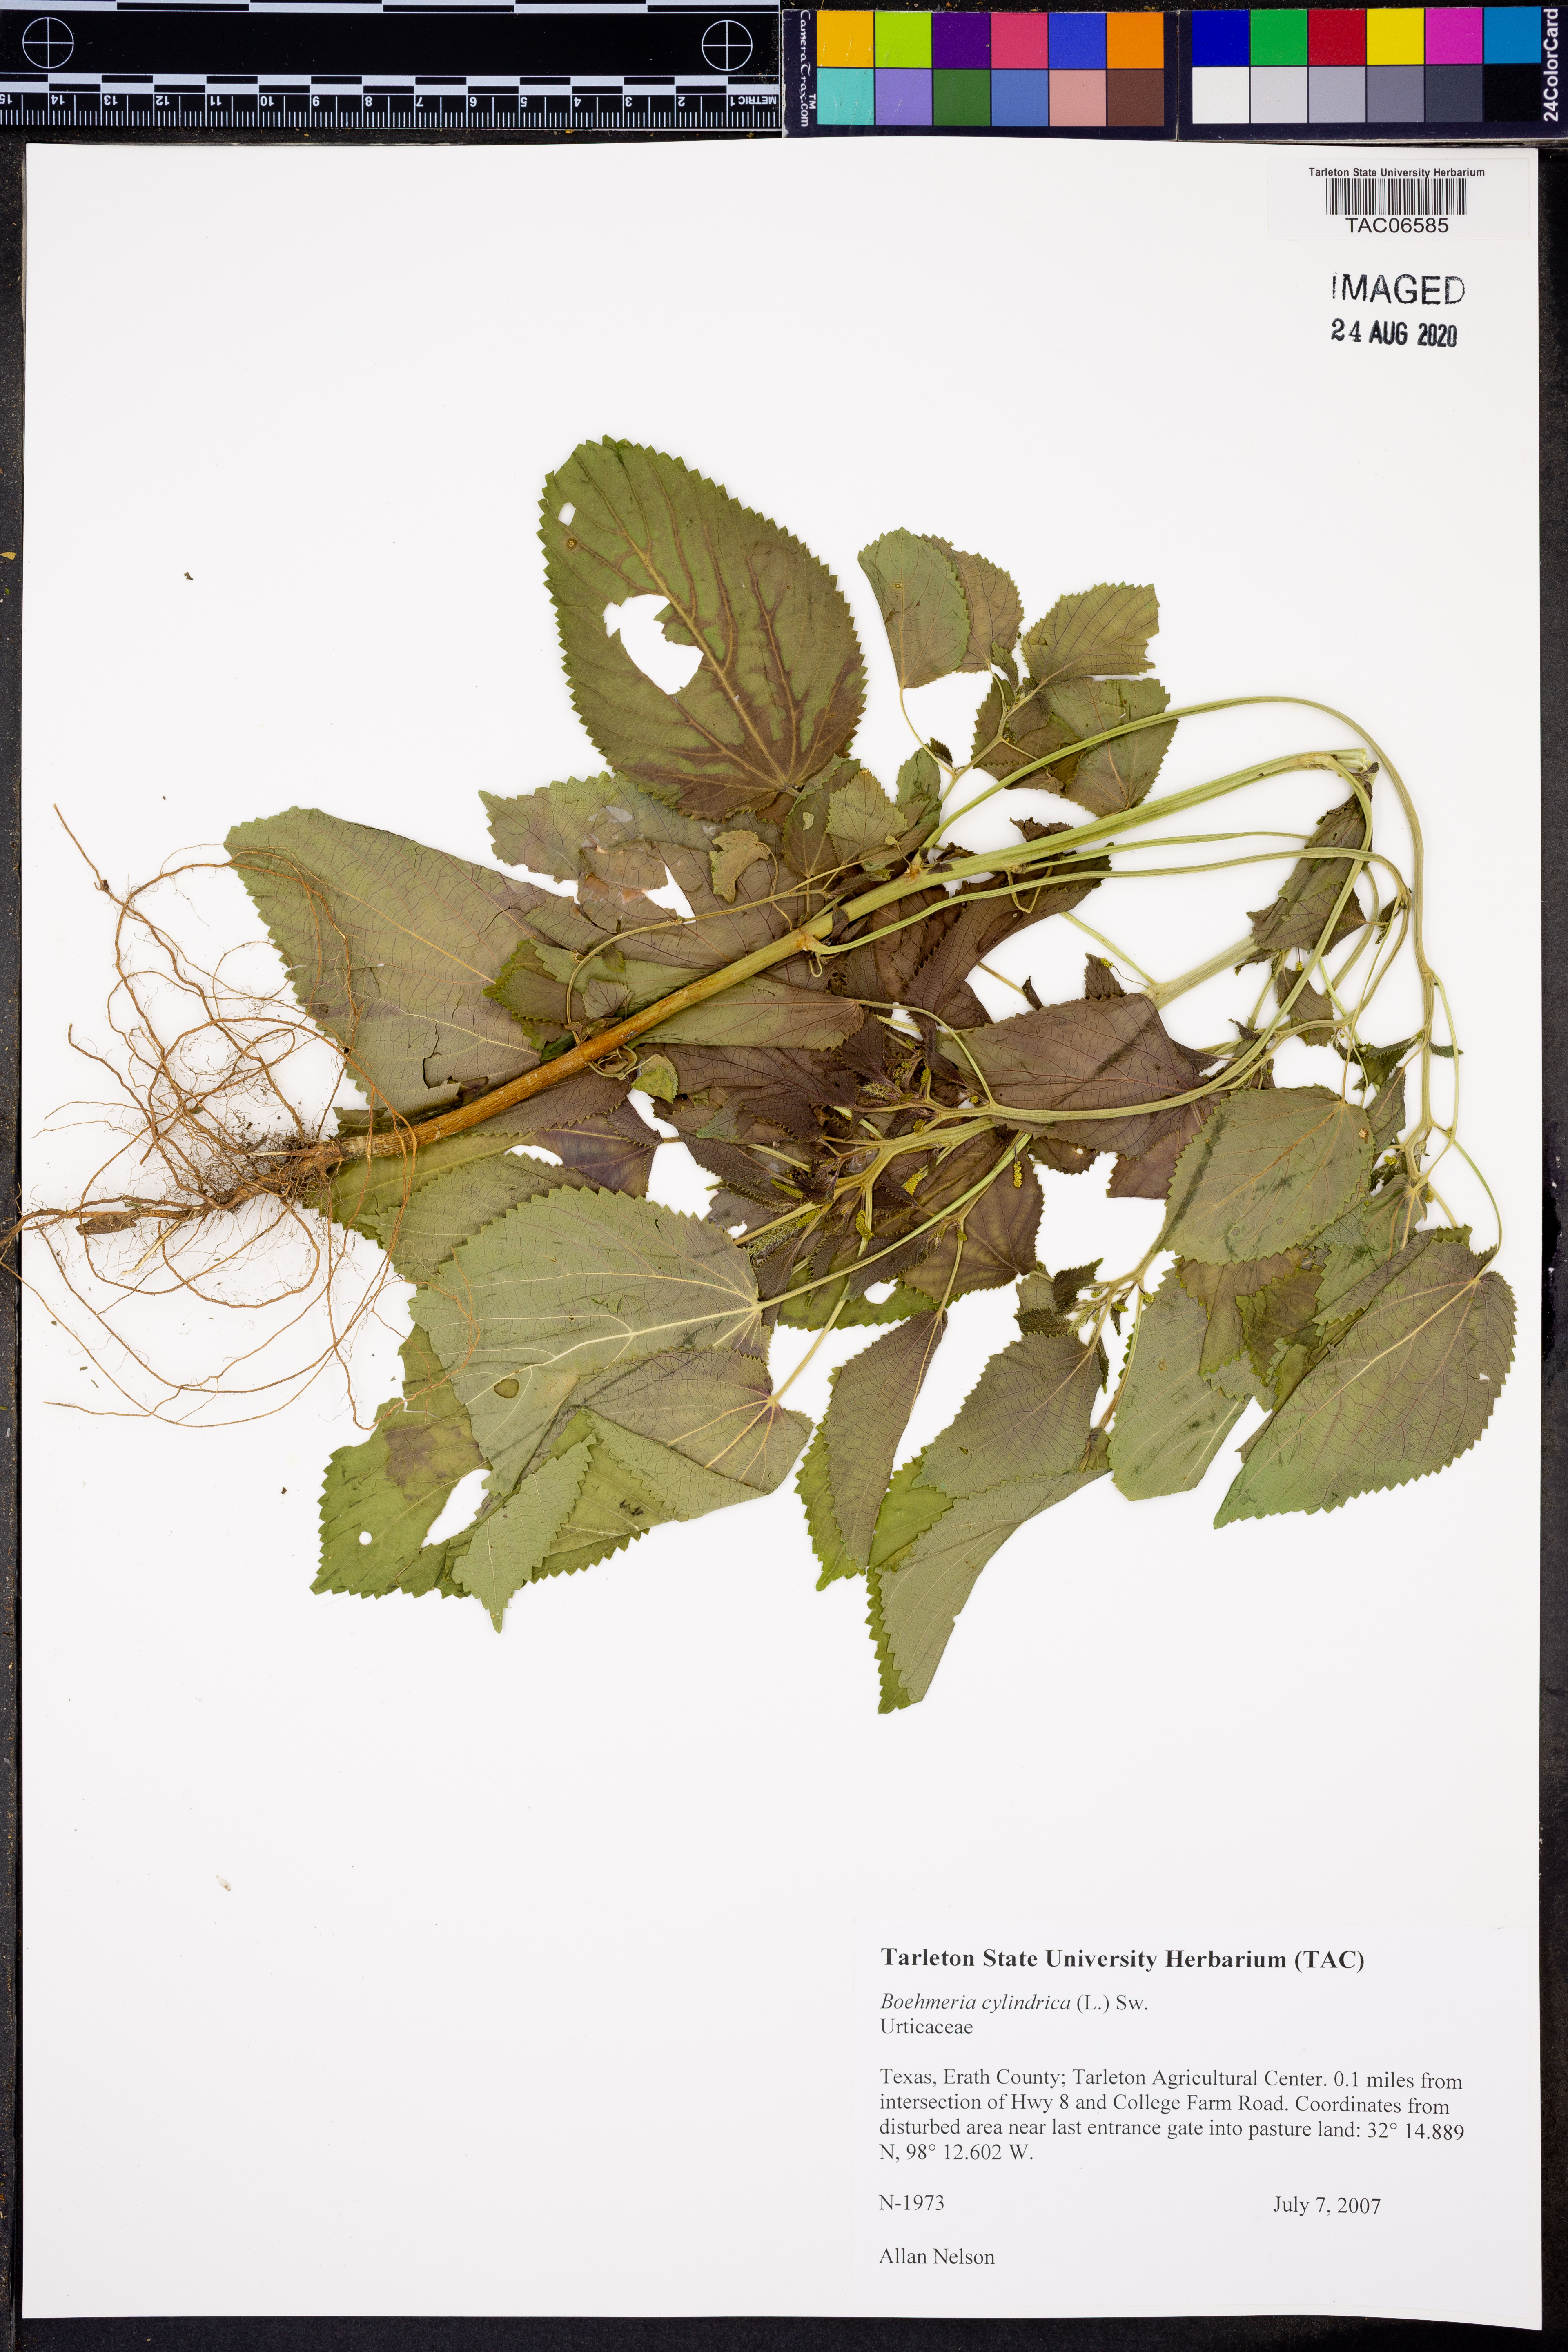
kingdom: Plantae
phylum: Tracheophyta
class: Magnoliopsida
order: Rosales
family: Urticaceae
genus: Boehmeria
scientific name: Boehmeria cylindrica
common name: Bog-hemp
